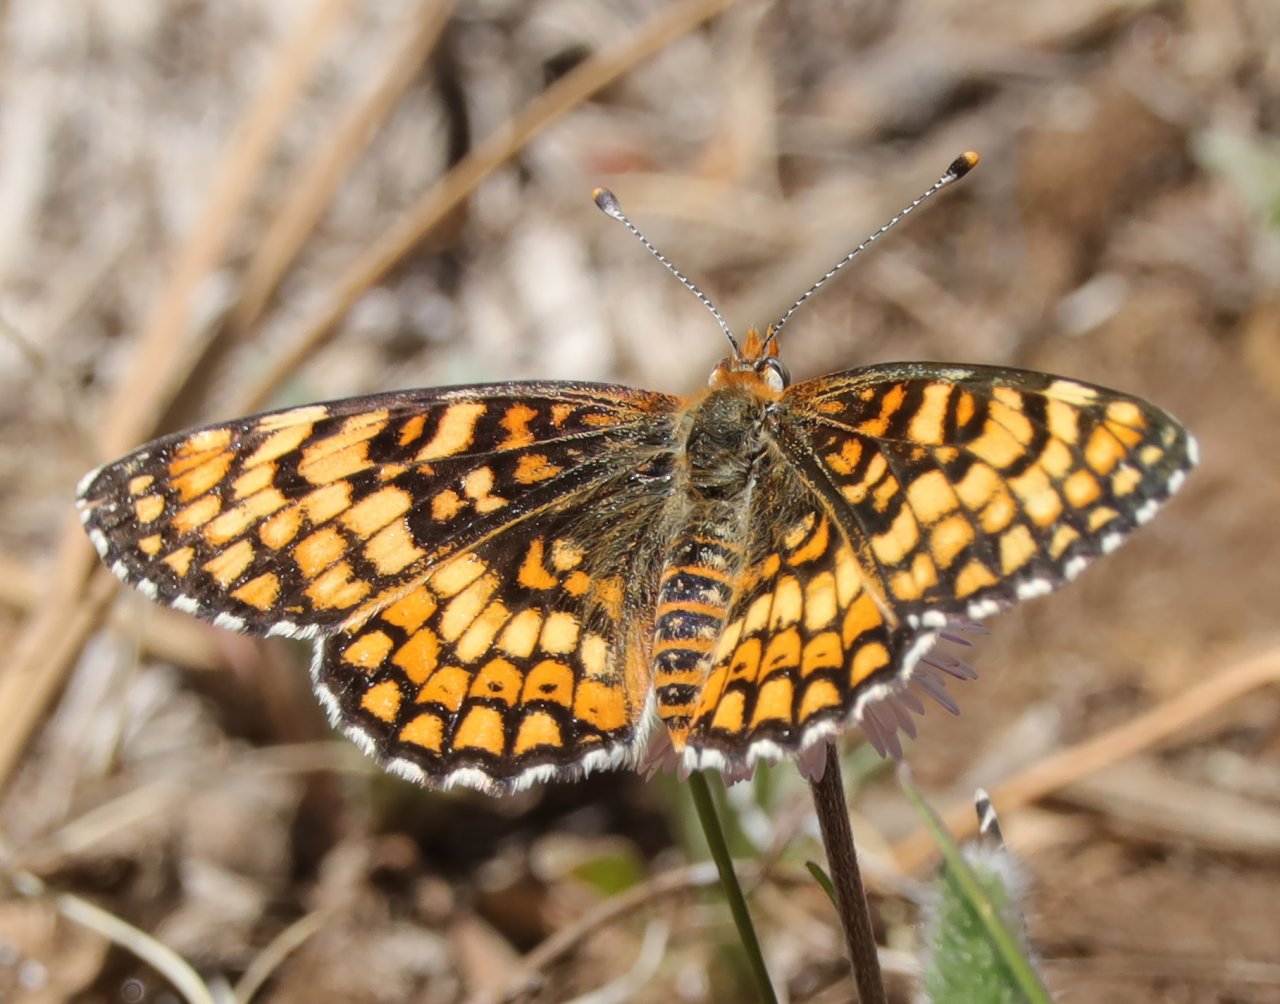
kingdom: Animalia
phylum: Arthropoda
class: Insecta
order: Lepidoptera
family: Nymphalidae
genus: Poladryas
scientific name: Poladryas minuta
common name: Arachne Checkerspot
